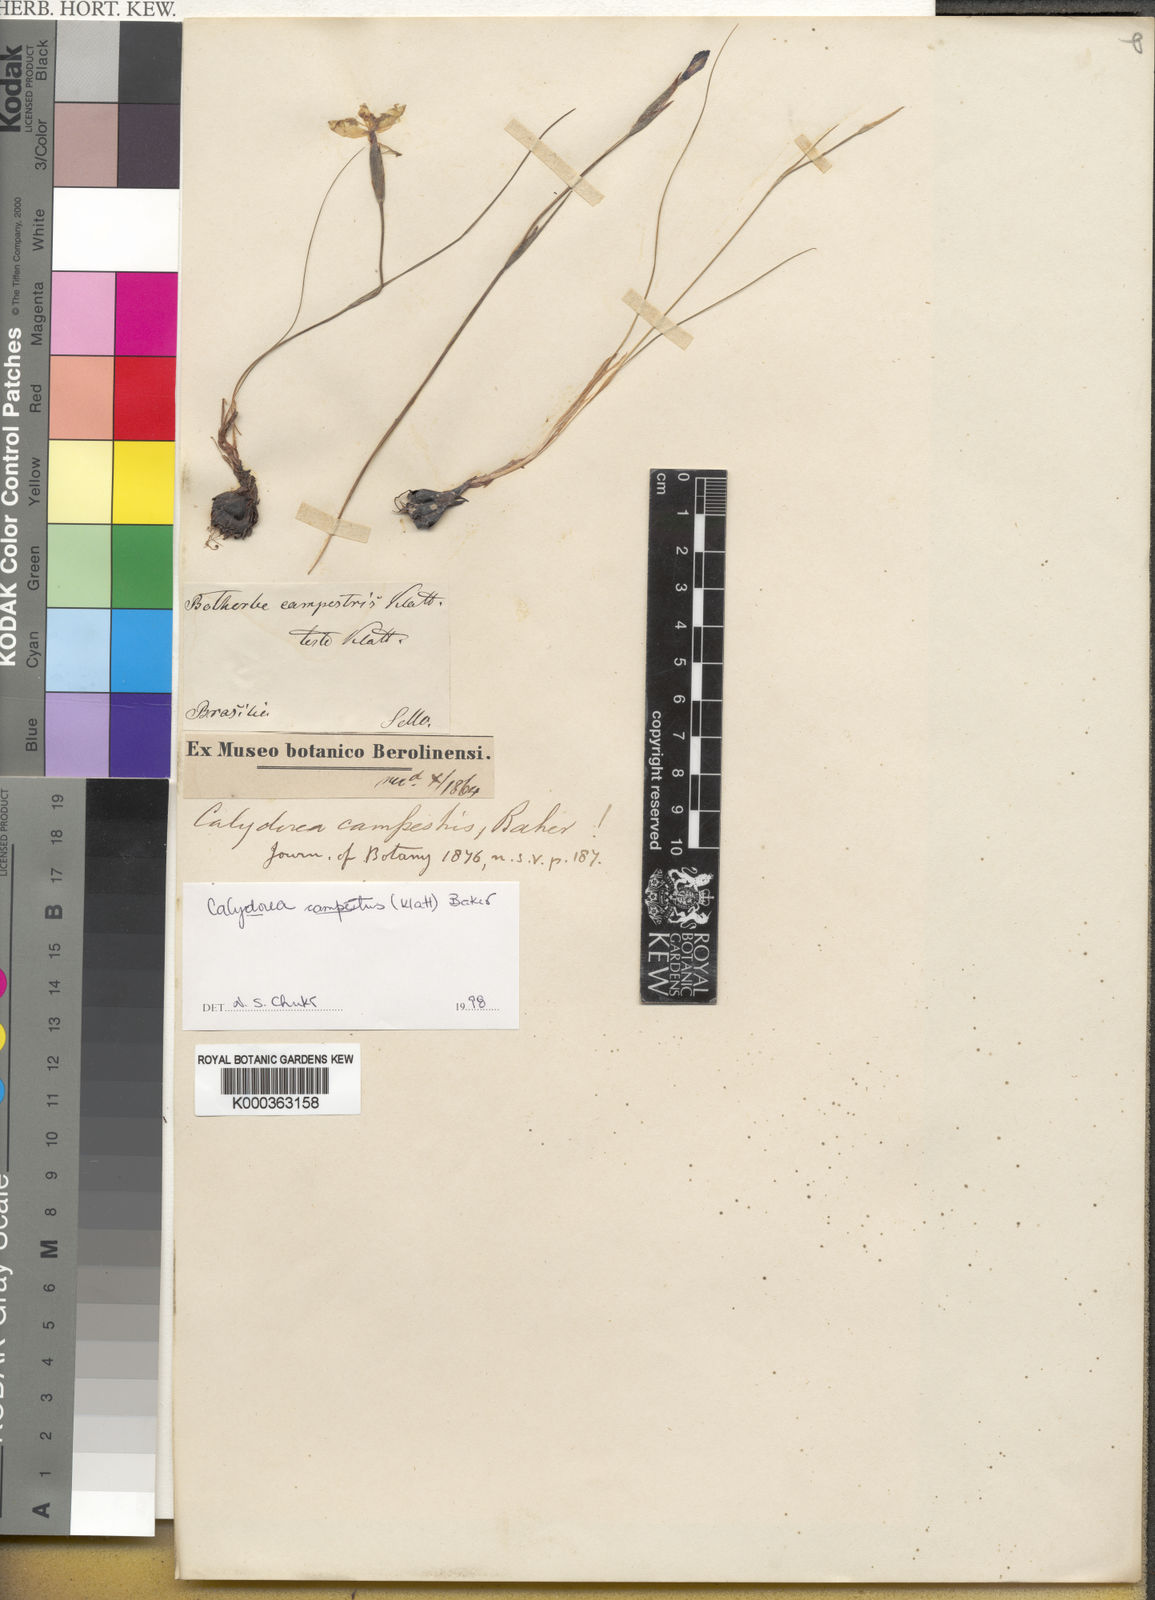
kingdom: Plantae
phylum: Tracheophyta
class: Liliopsida
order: Asparagales
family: Iridaceae
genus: Calydorea
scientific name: Calydorea campestris
